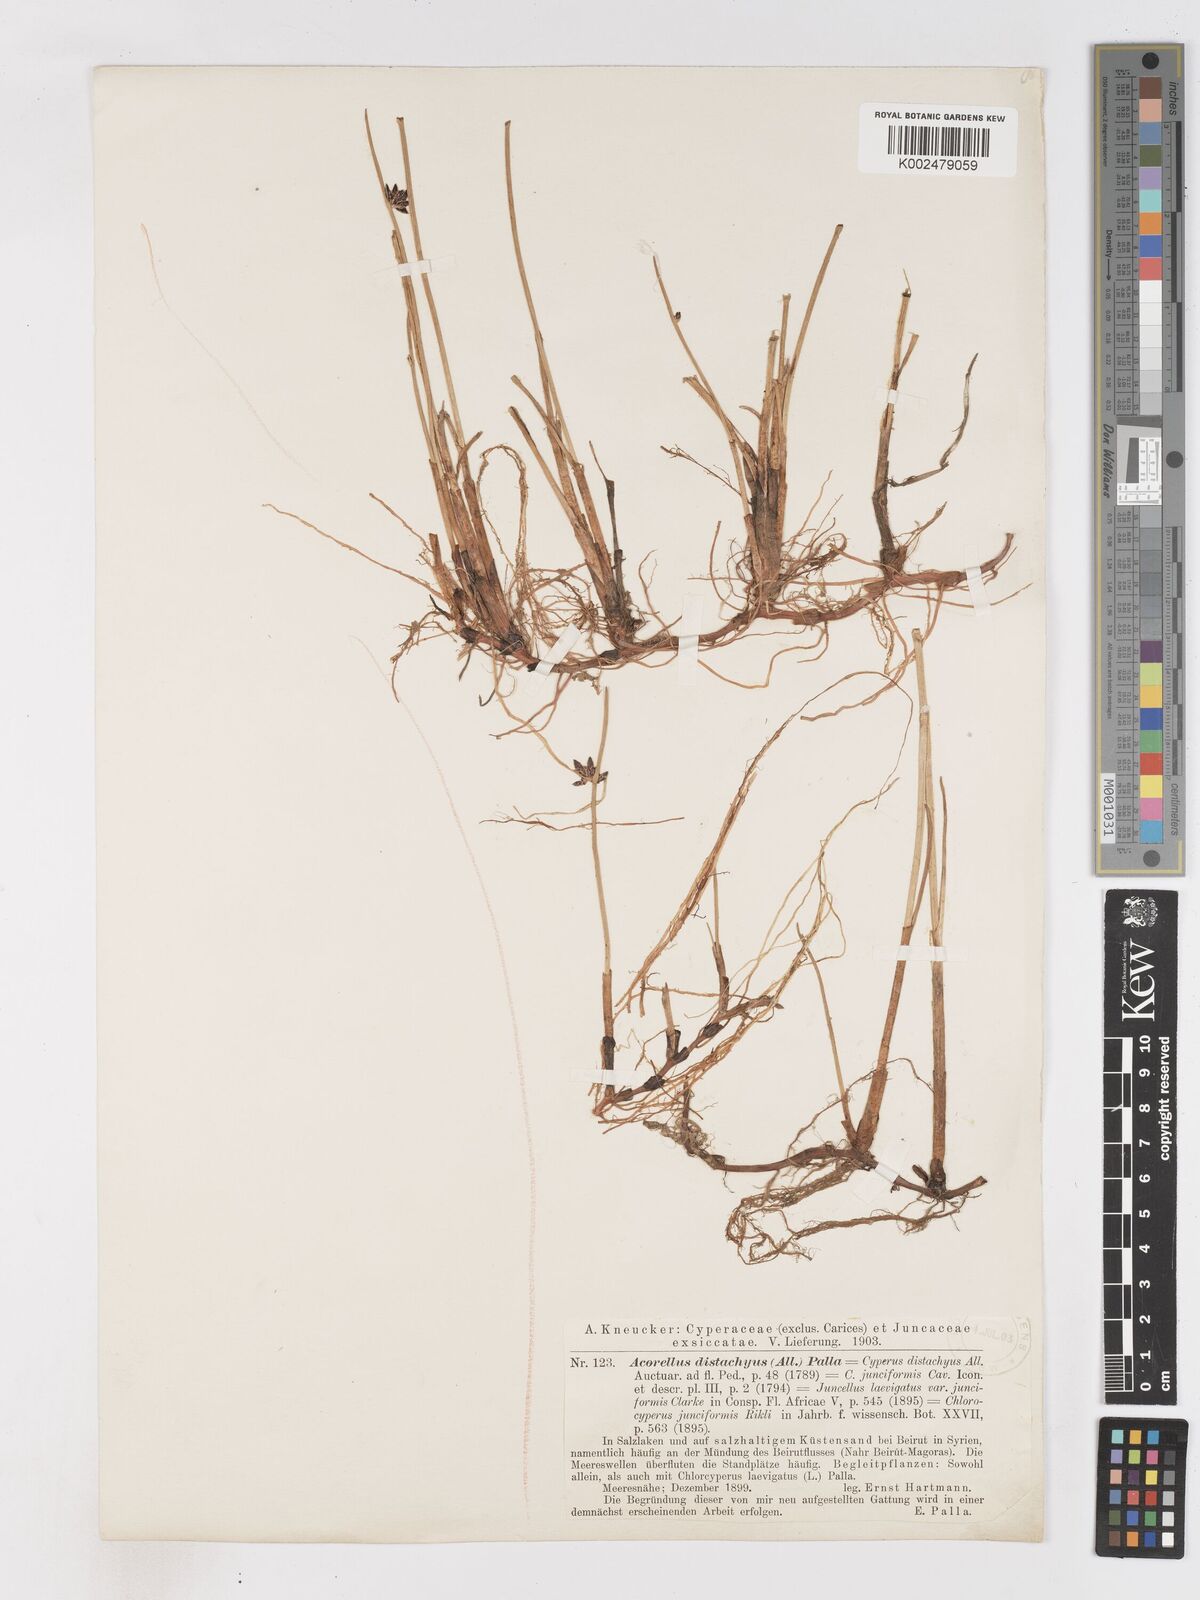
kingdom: Plantae
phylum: Tracheophyta
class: Liliopsida
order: Poales
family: Cyperaceae
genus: Cyperus
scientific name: Cyperus laevigatus
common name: Smooth flat sedge
